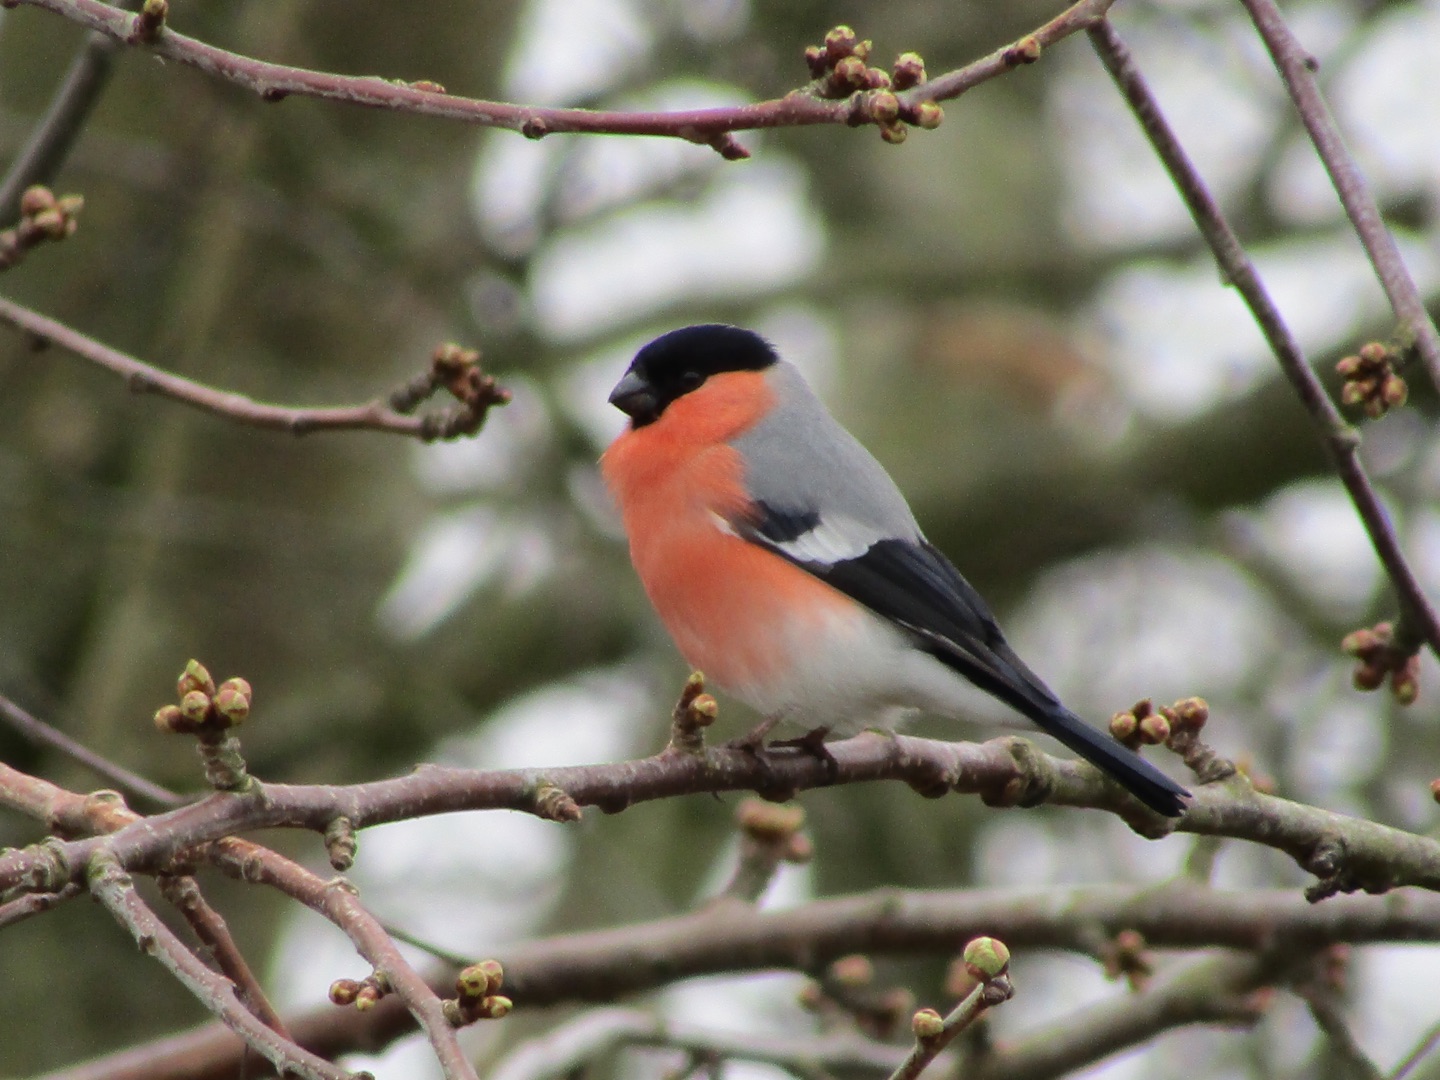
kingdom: Animalia
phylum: Chordata
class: Aves
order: Passeriformes
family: Fringillidae
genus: Pyrrhula
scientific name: Pyrrhula pyrrhula
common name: Dompap
